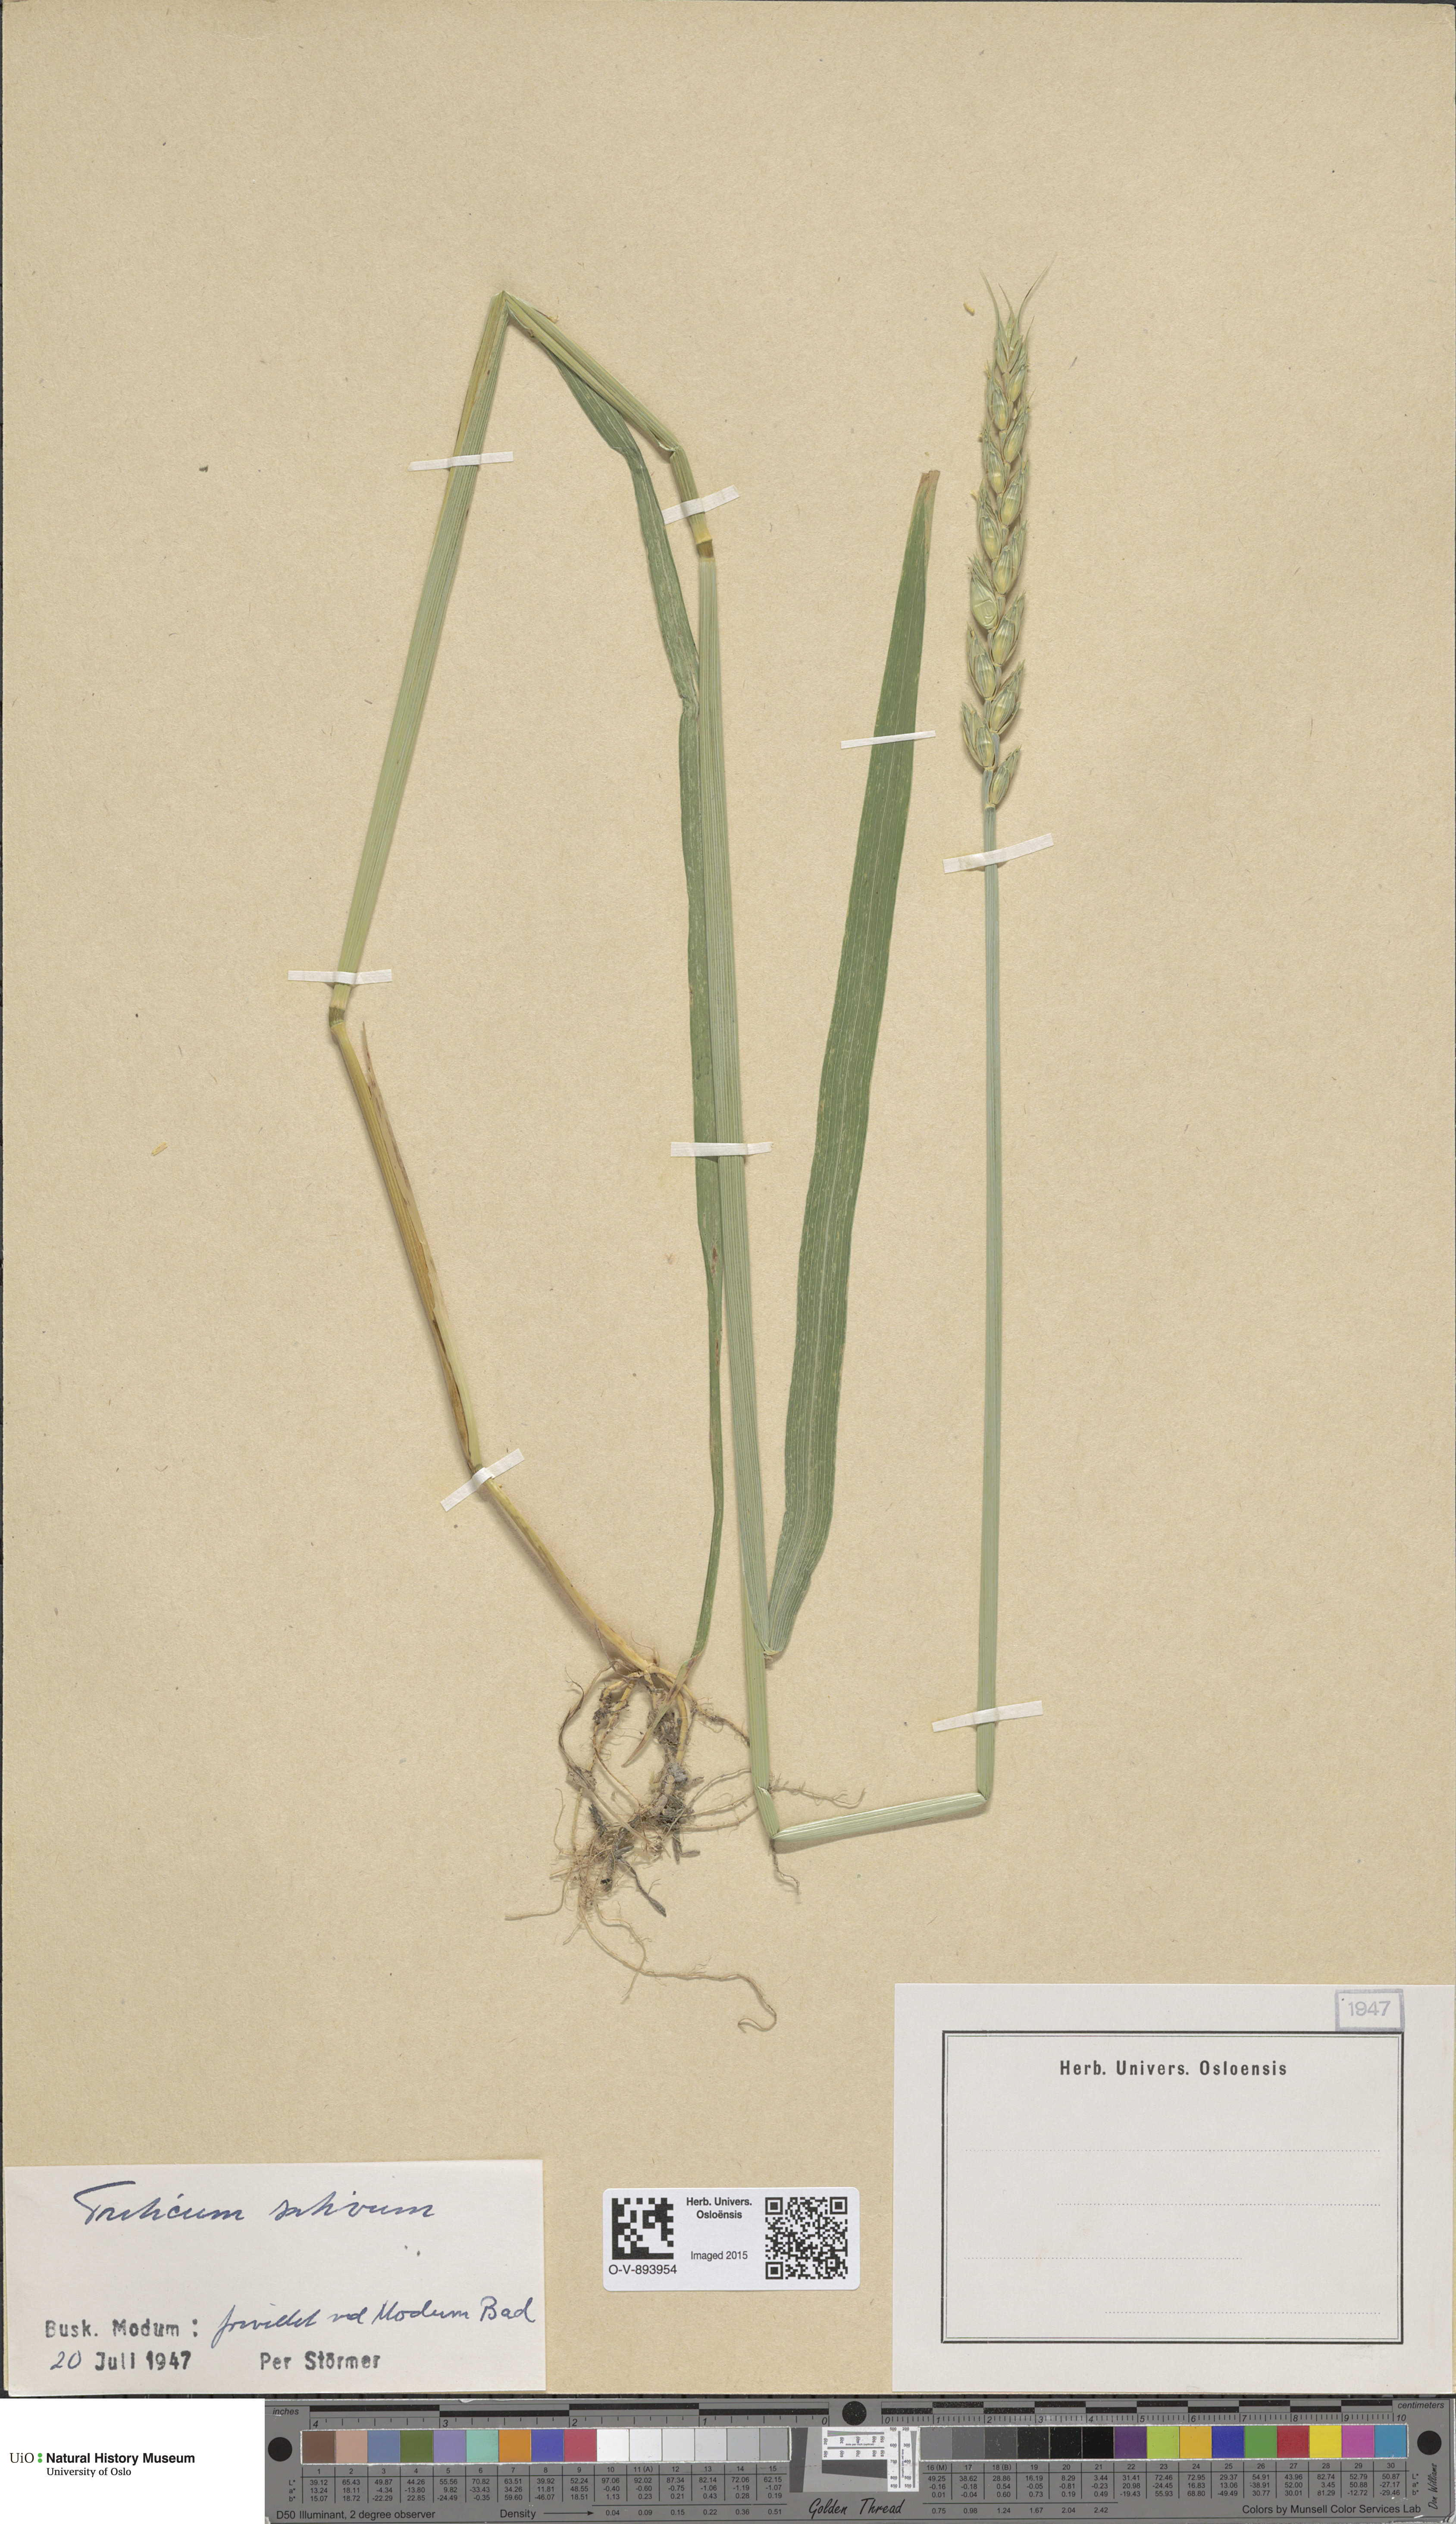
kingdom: Plantae
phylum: Tracheophyta
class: Liliopsida
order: Poales
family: Poaceae
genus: Triticum
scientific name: Triticum aestivum
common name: Common wheat
